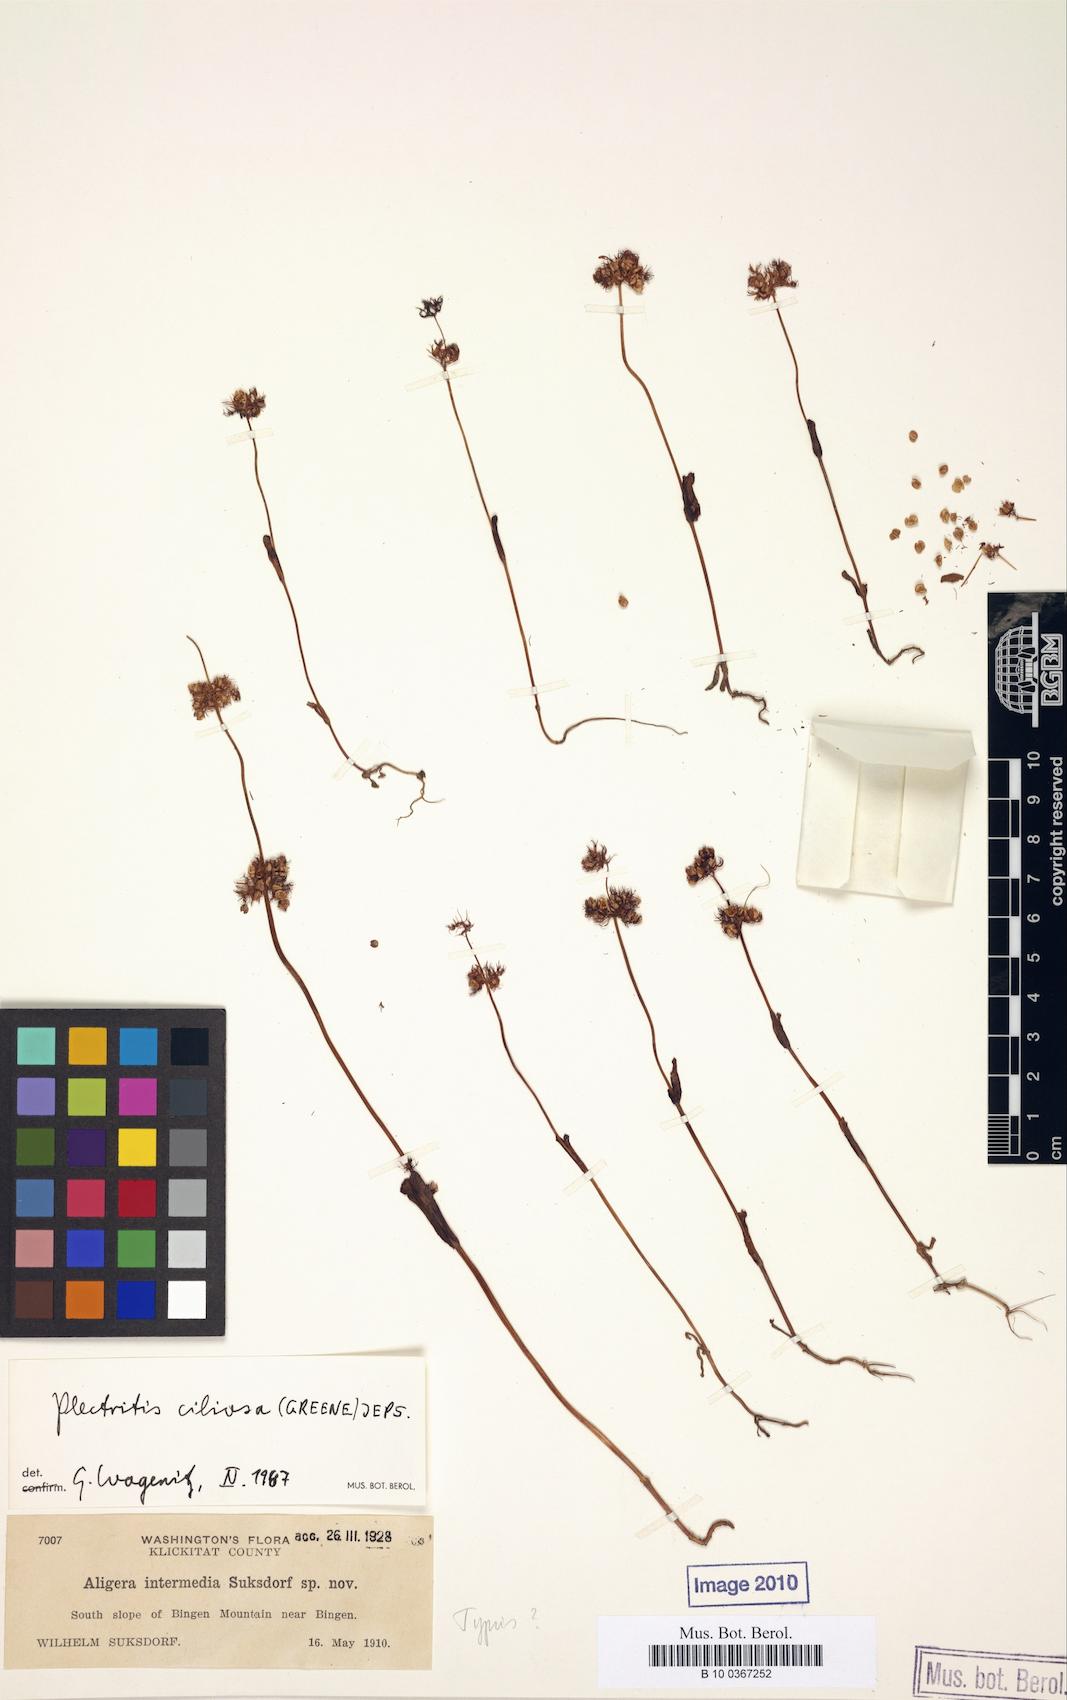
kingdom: Plantae
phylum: Tracheophyta
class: Magnoliopsida
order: Dipsacales
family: Caprifoliaceae
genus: Plectritis
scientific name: Plectritis ciliosa
